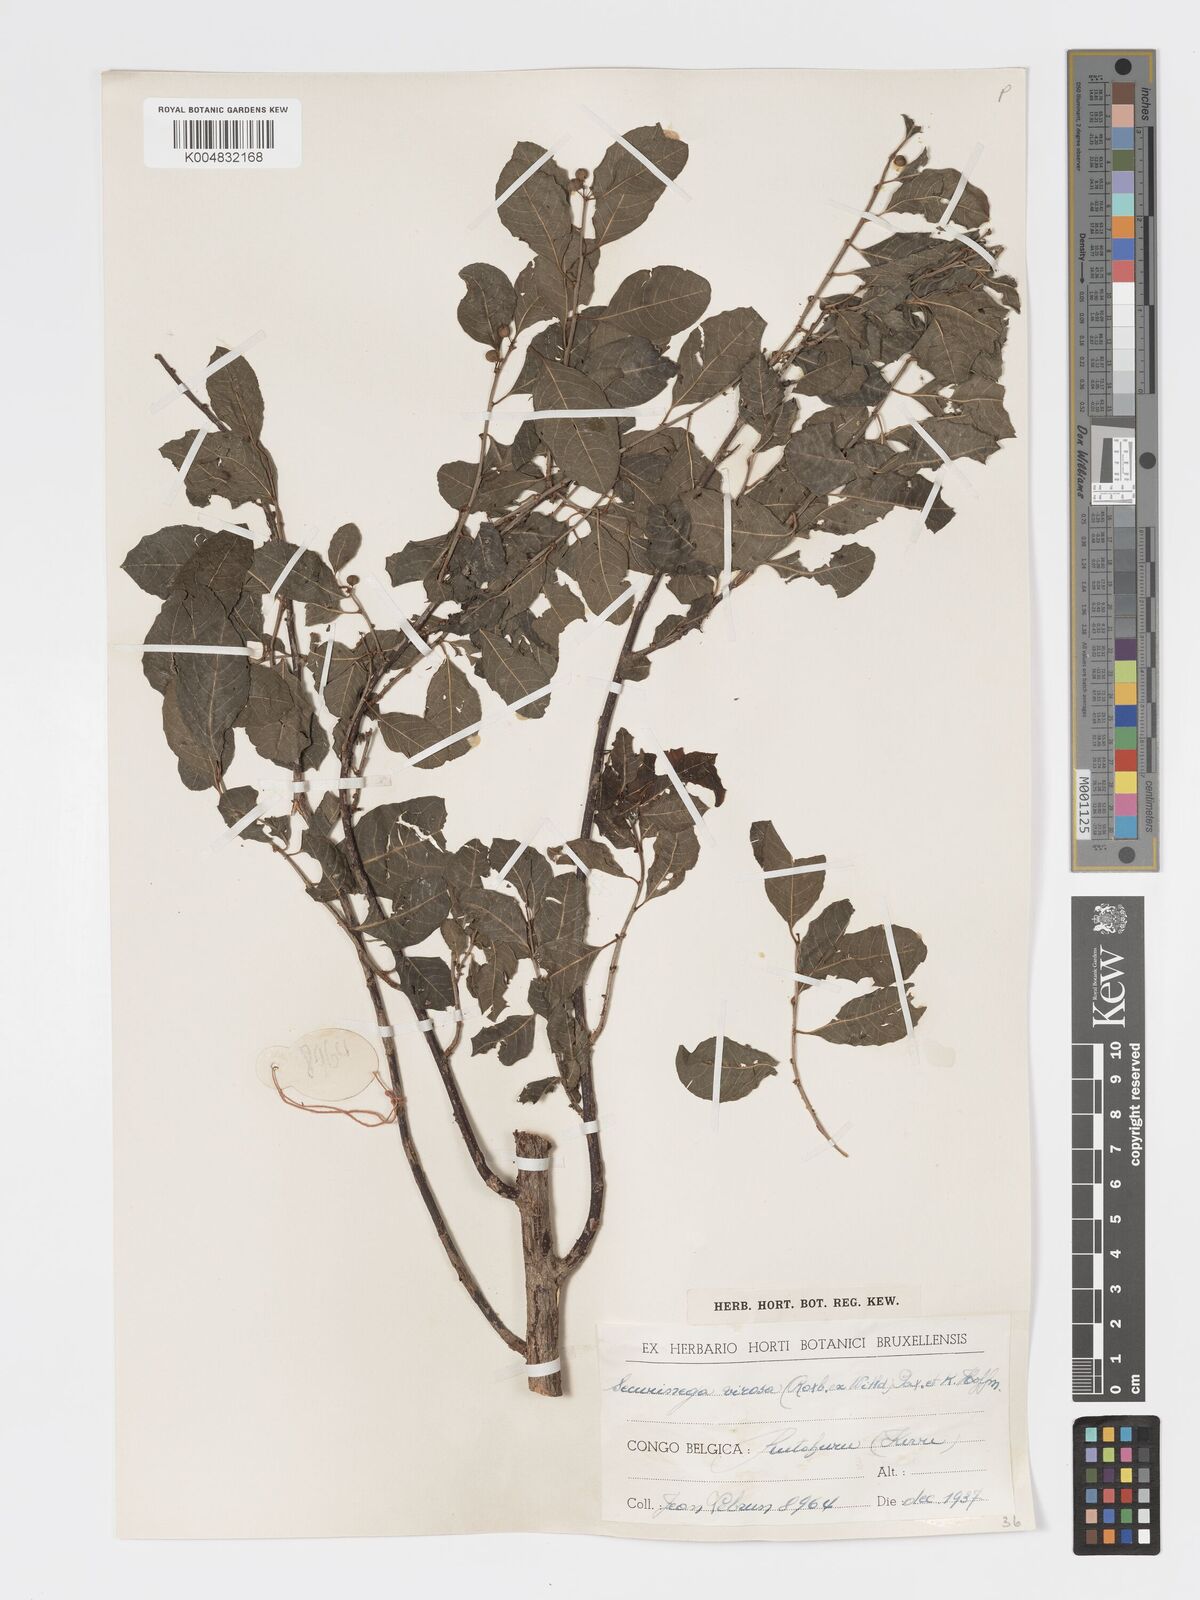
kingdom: Plantae
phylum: Tracheophyta
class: Magnoliopsida
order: Malpighiales
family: Phyllanthaceae
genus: Flueggea
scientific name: Flueggea virosa
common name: Common bushweed
